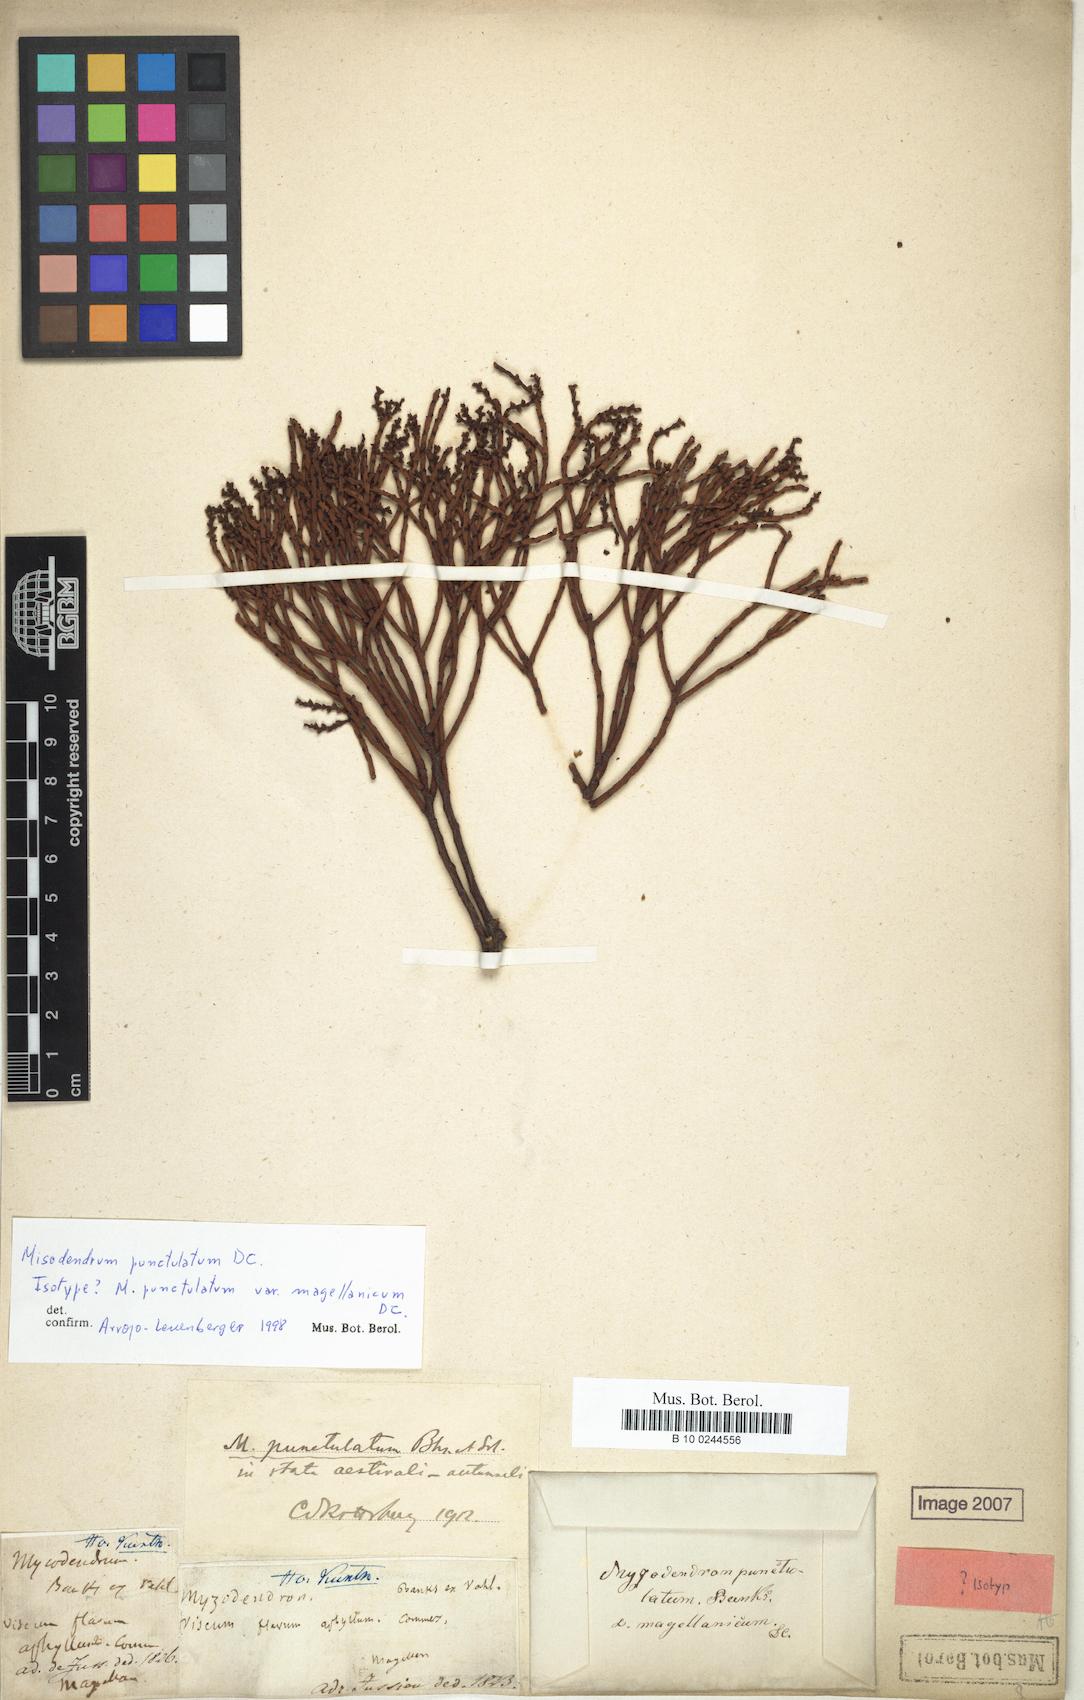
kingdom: Plantae
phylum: Tracheophyta
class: Magnoliopsida
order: Santalales
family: Misodendraceae
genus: Misodendrum
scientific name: Misodendrum punctulatum
